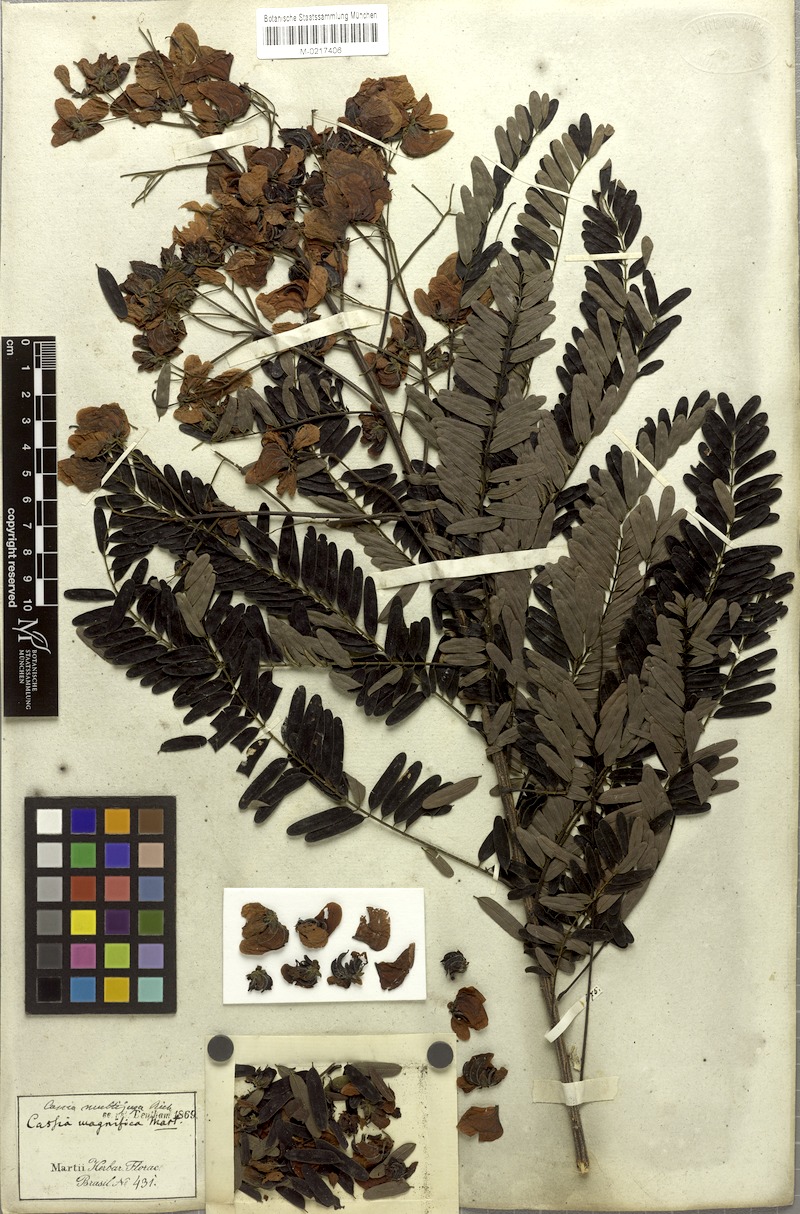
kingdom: Plantae
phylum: Tracheophyta
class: Magnoliopsida
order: Fabales
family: Fabaceae
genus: Senna
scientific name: Senna multijuga
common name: False sicklepod
